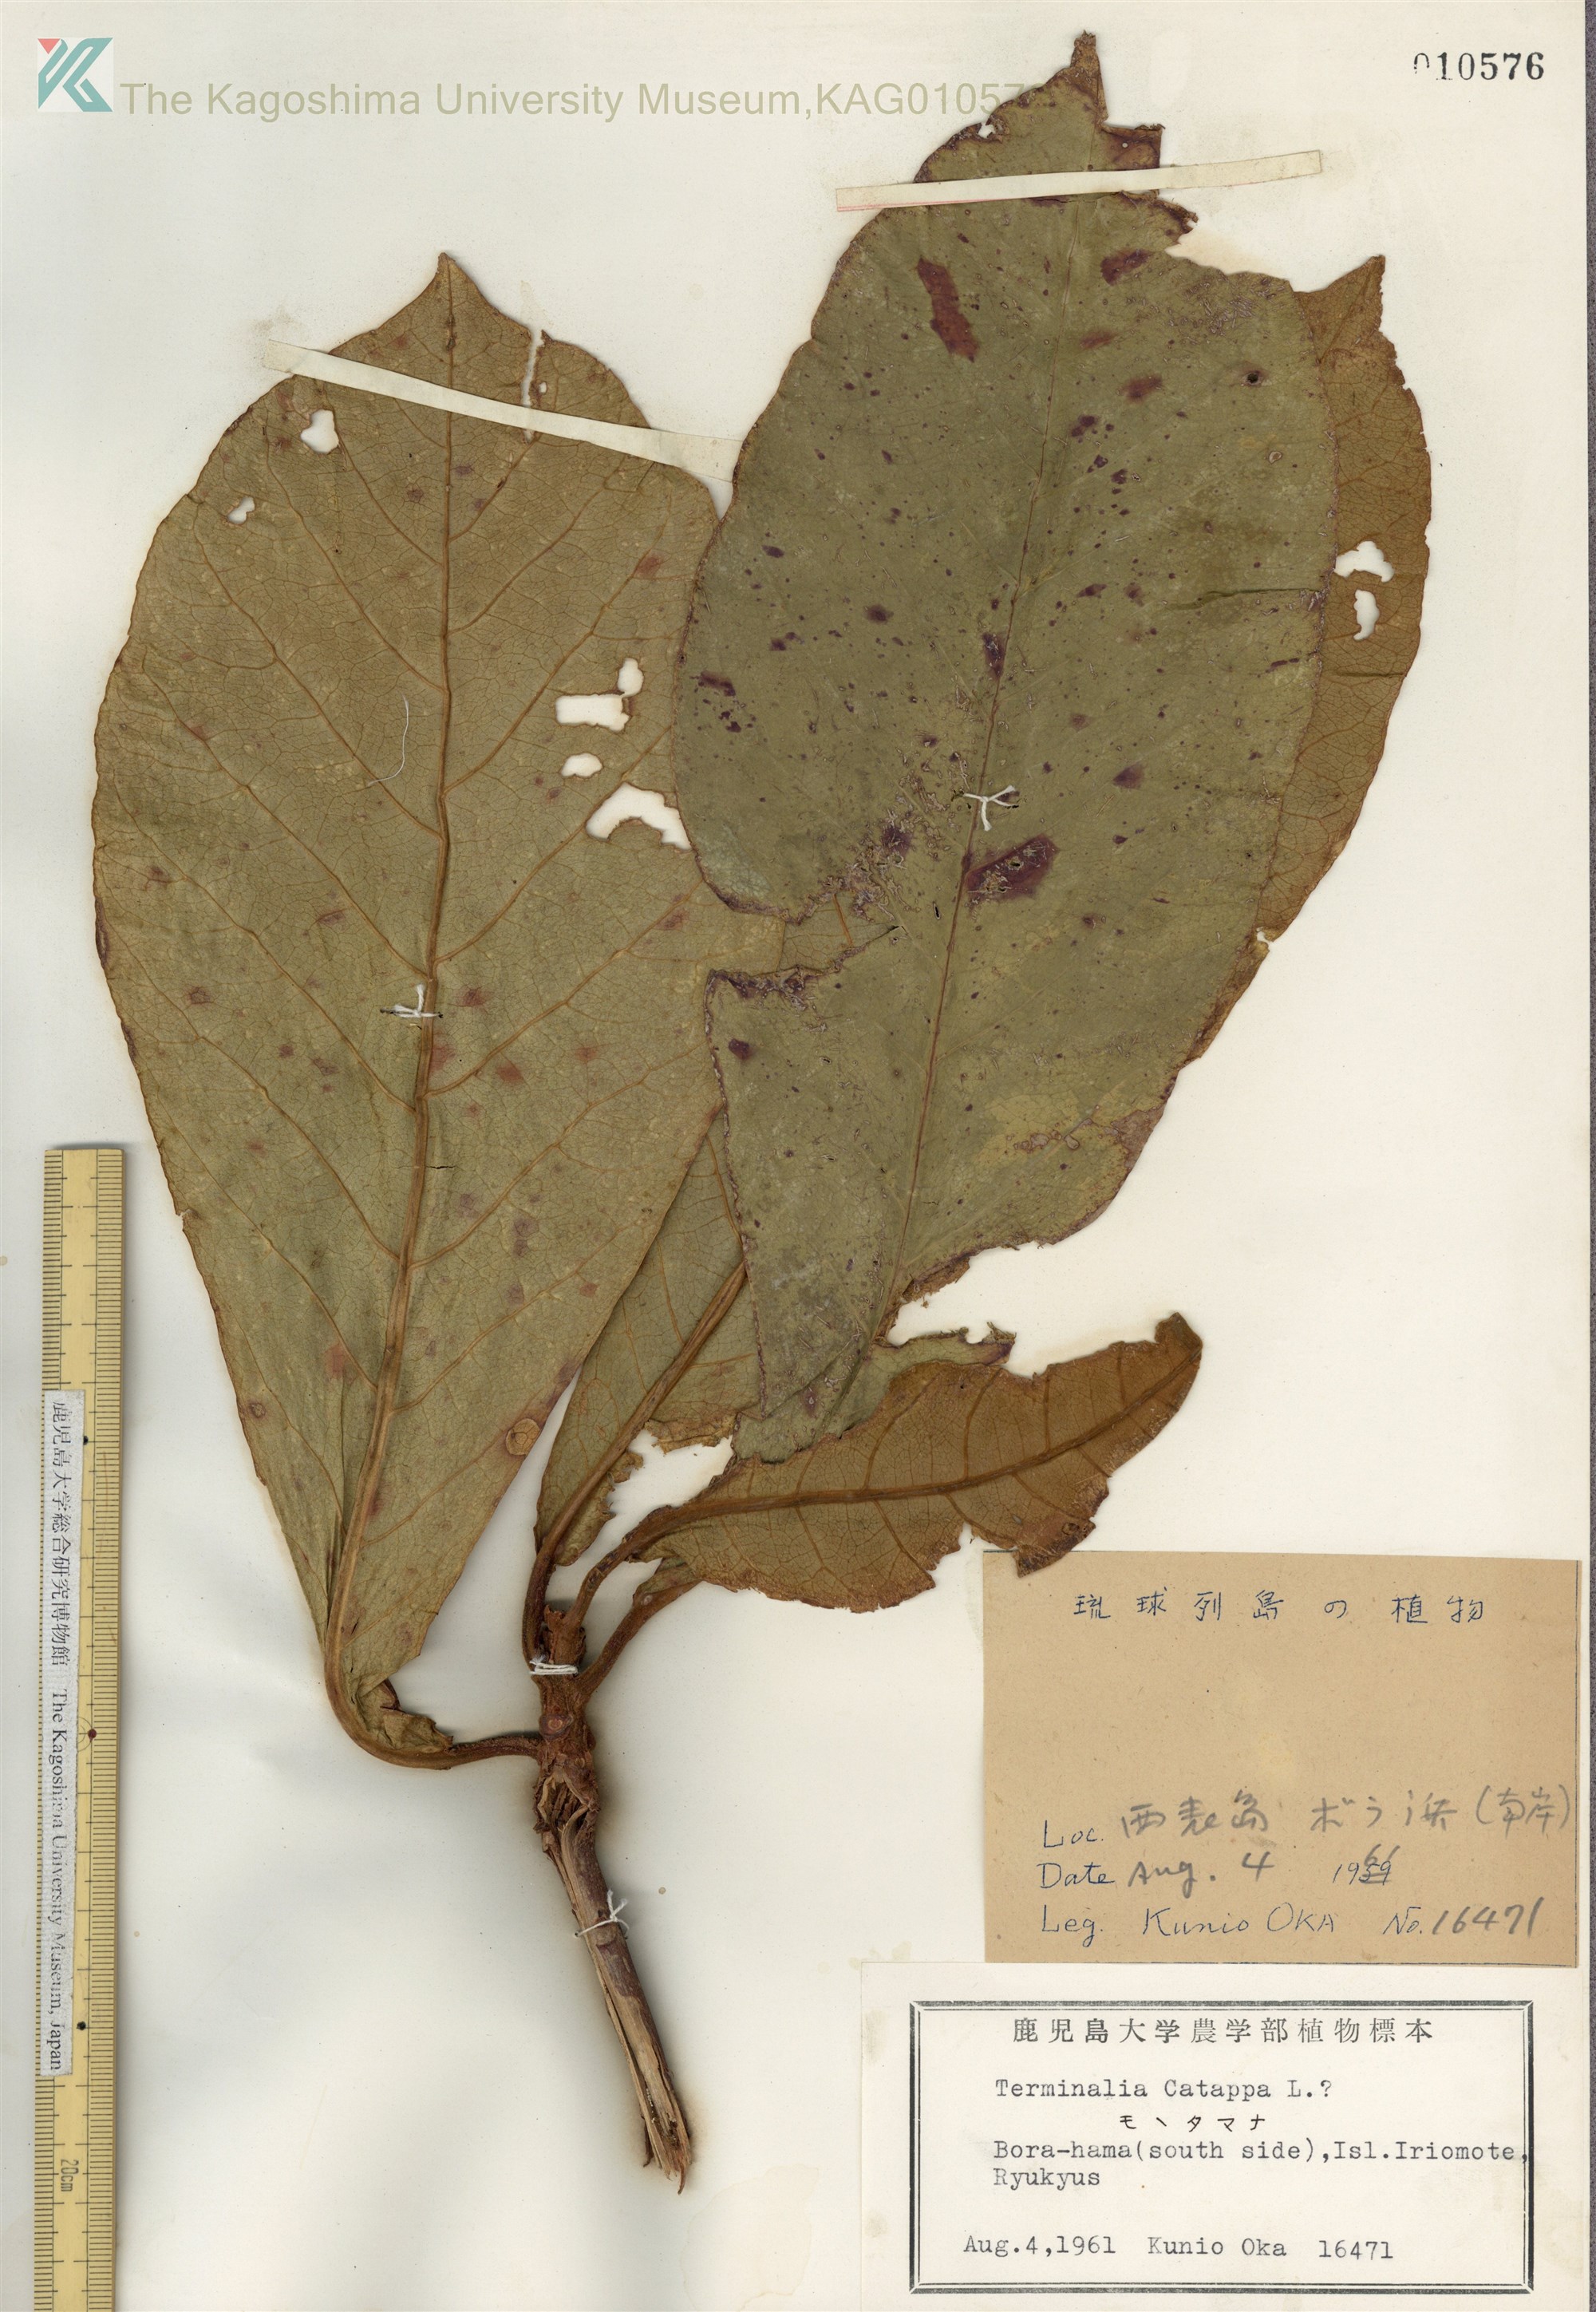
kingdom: Plantae
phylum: Tracheophyta
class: Magnoliopsida
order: Myrtales
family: Combretaceae
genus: Terminalia
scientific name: Terminalia catappa
